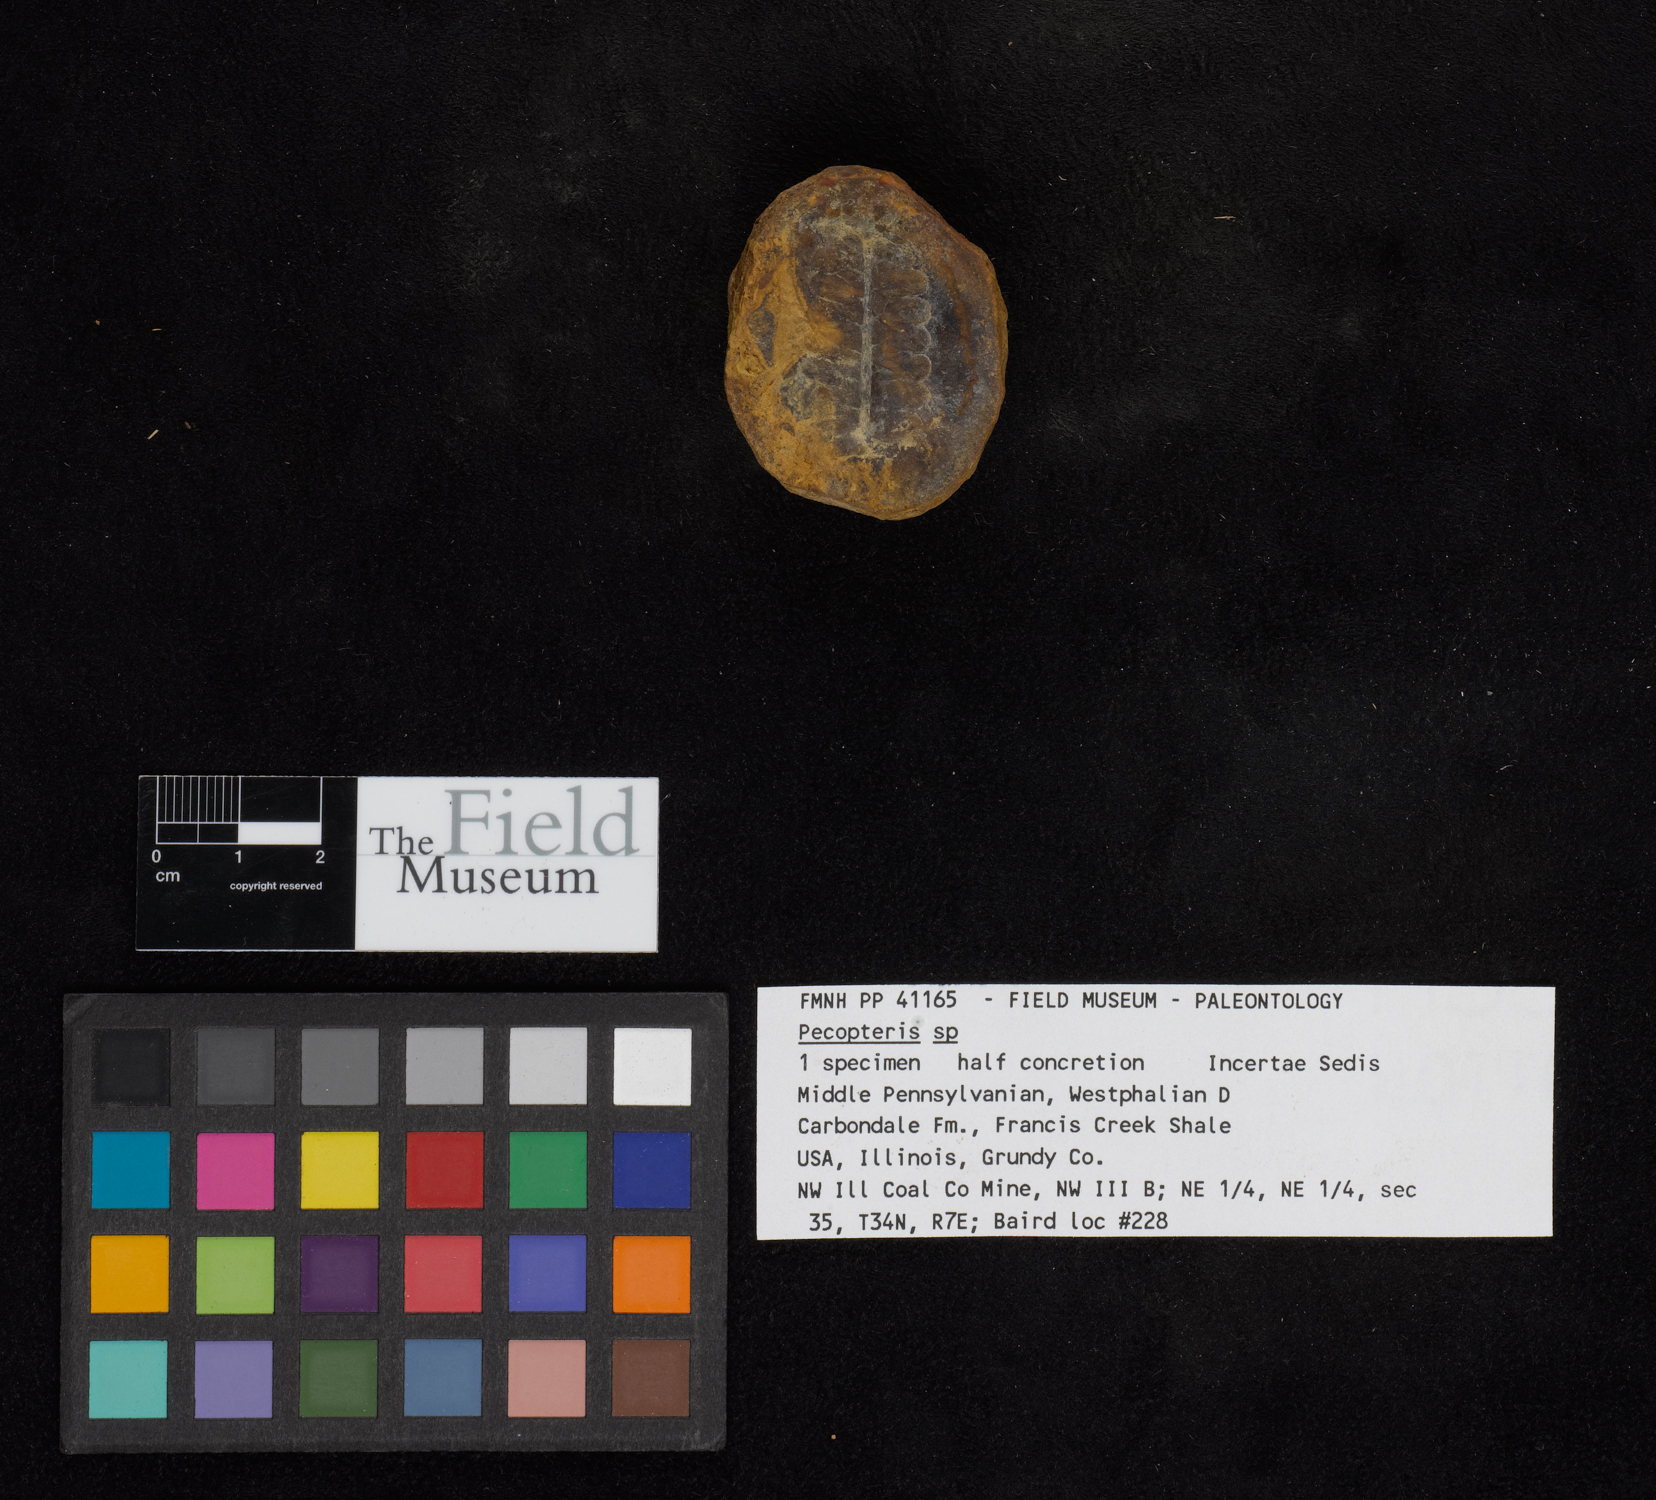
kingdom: Plantae
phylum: Tracheophyta
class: Polypodiopsida
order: Marattiales
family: Asterothecaceae
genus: Pecopteris
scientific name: Pecopteris
